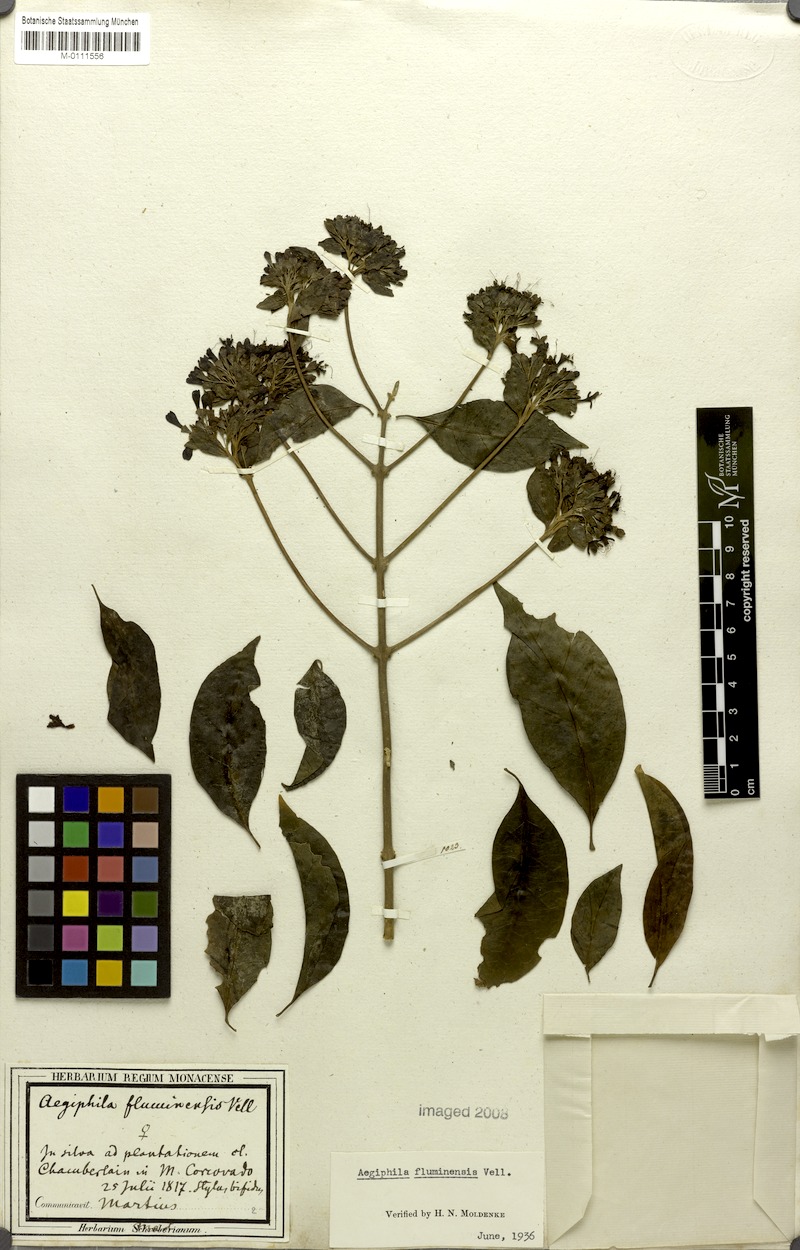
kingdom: Plantae
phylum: Tracheophyta
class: Magnoliopsida
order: Lamiales
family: Lamiaceae
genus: Aegiphila
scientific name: Aegiphila fluminensis
